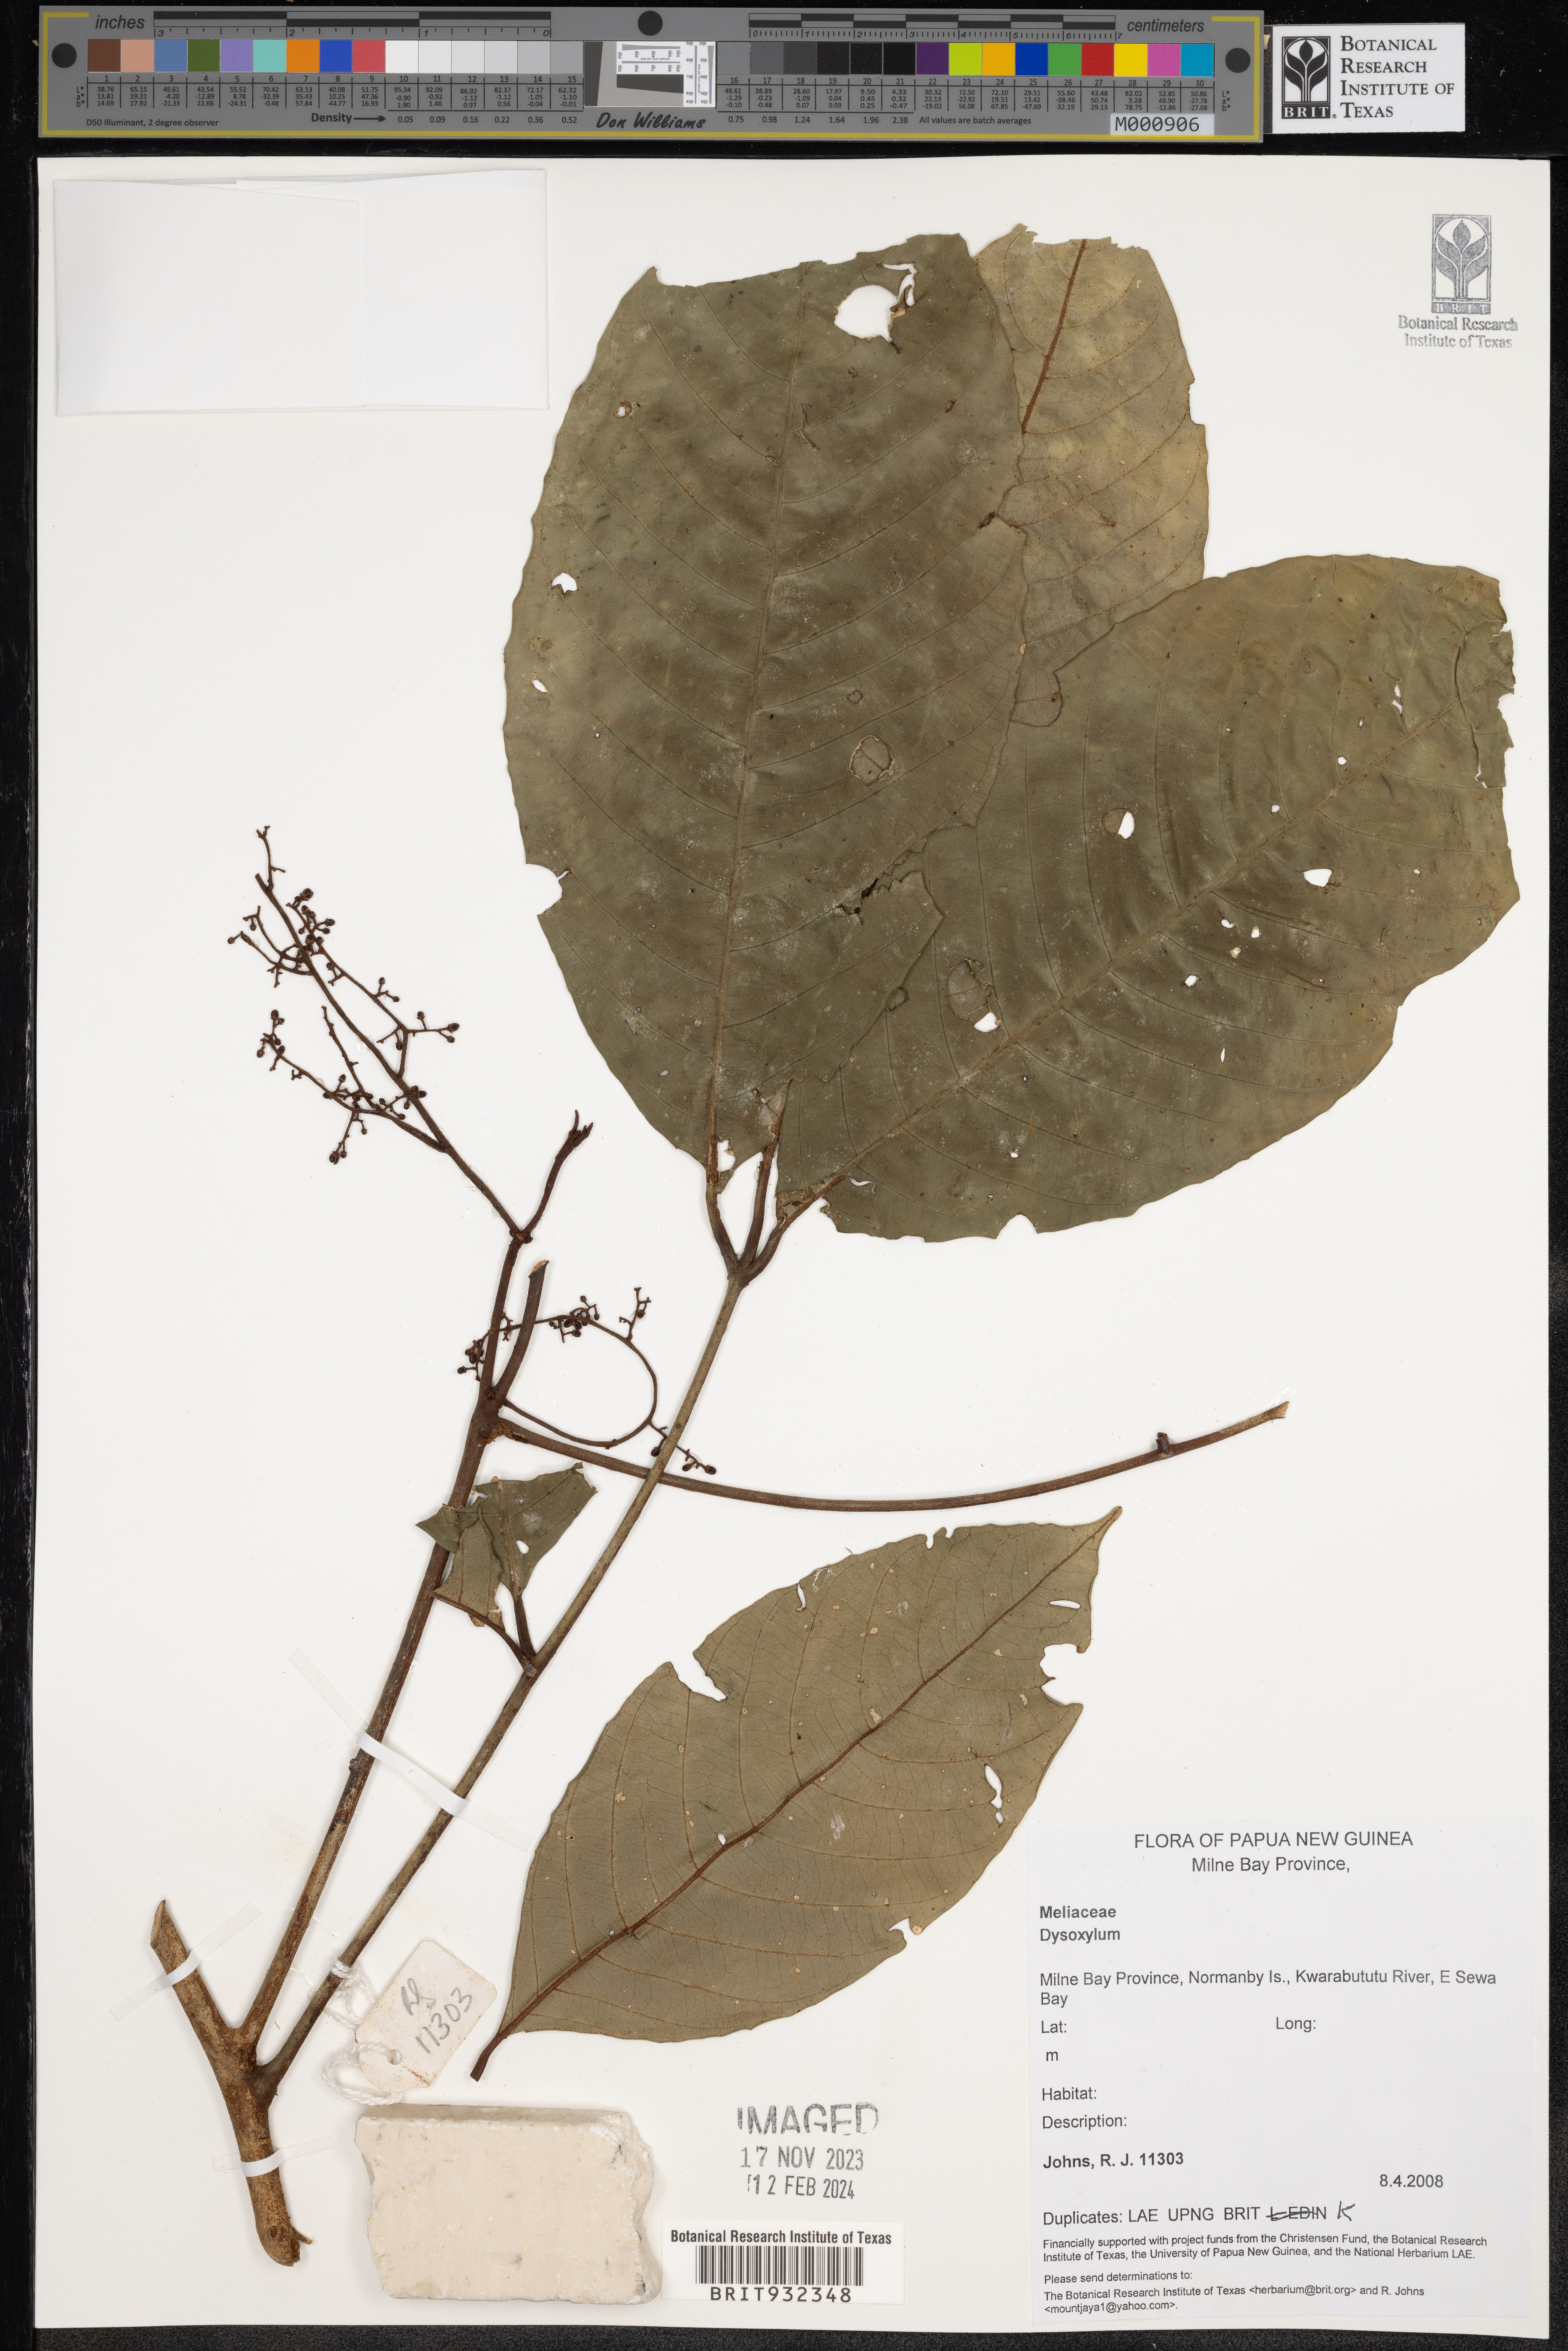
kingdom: Plantae
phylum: Tracheophyta
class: Magnoliopsida
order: Sapindales
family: Meliaceae
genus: Dysoxylum
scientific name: Dysoxylum
